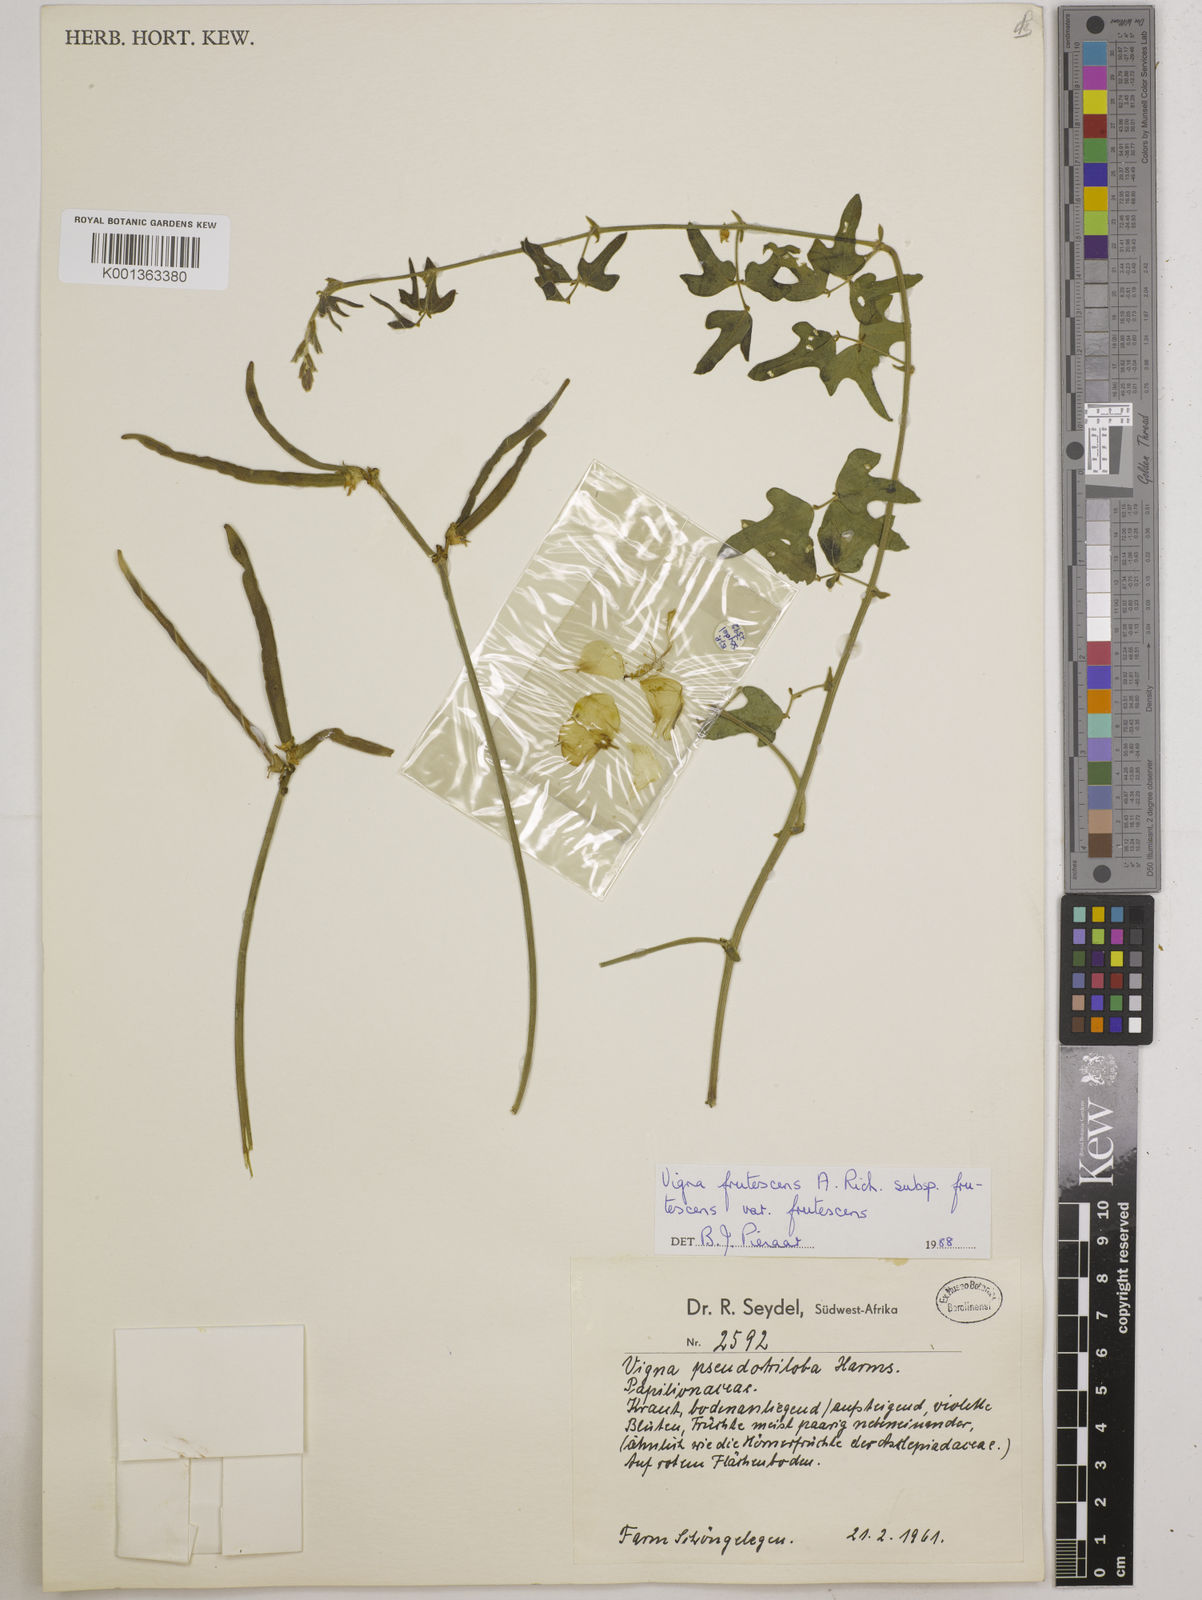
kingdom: Plantae
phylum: Tracheophyta
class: Magnoliopsida
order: Fabales
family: Fabaceae
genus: Vigna
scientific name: Vigna frutescens
